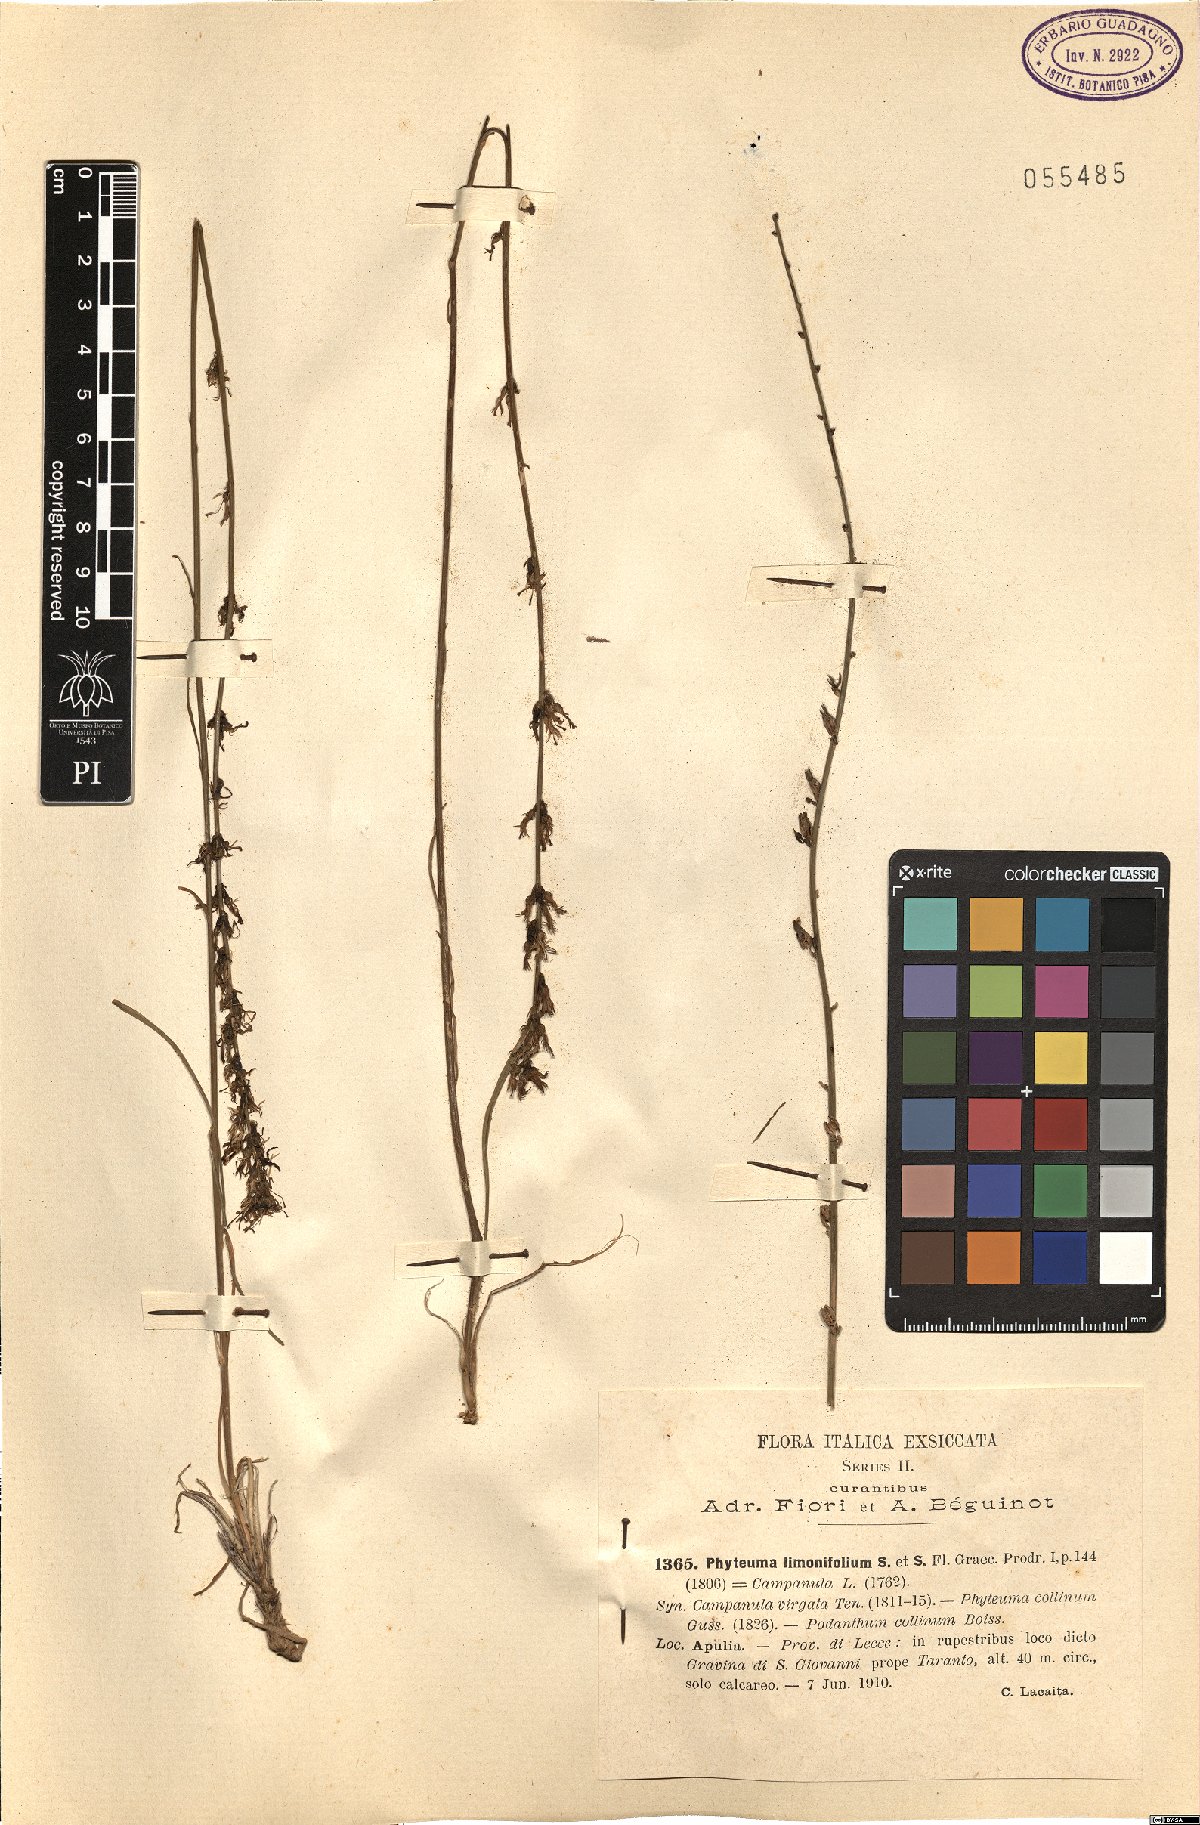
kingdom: Plantae
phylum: Tracheophyta
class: Magnoliopsida
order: Asterales
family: Campanulaceae
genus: Asyneuma
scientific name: Asyneuma limonifolium
